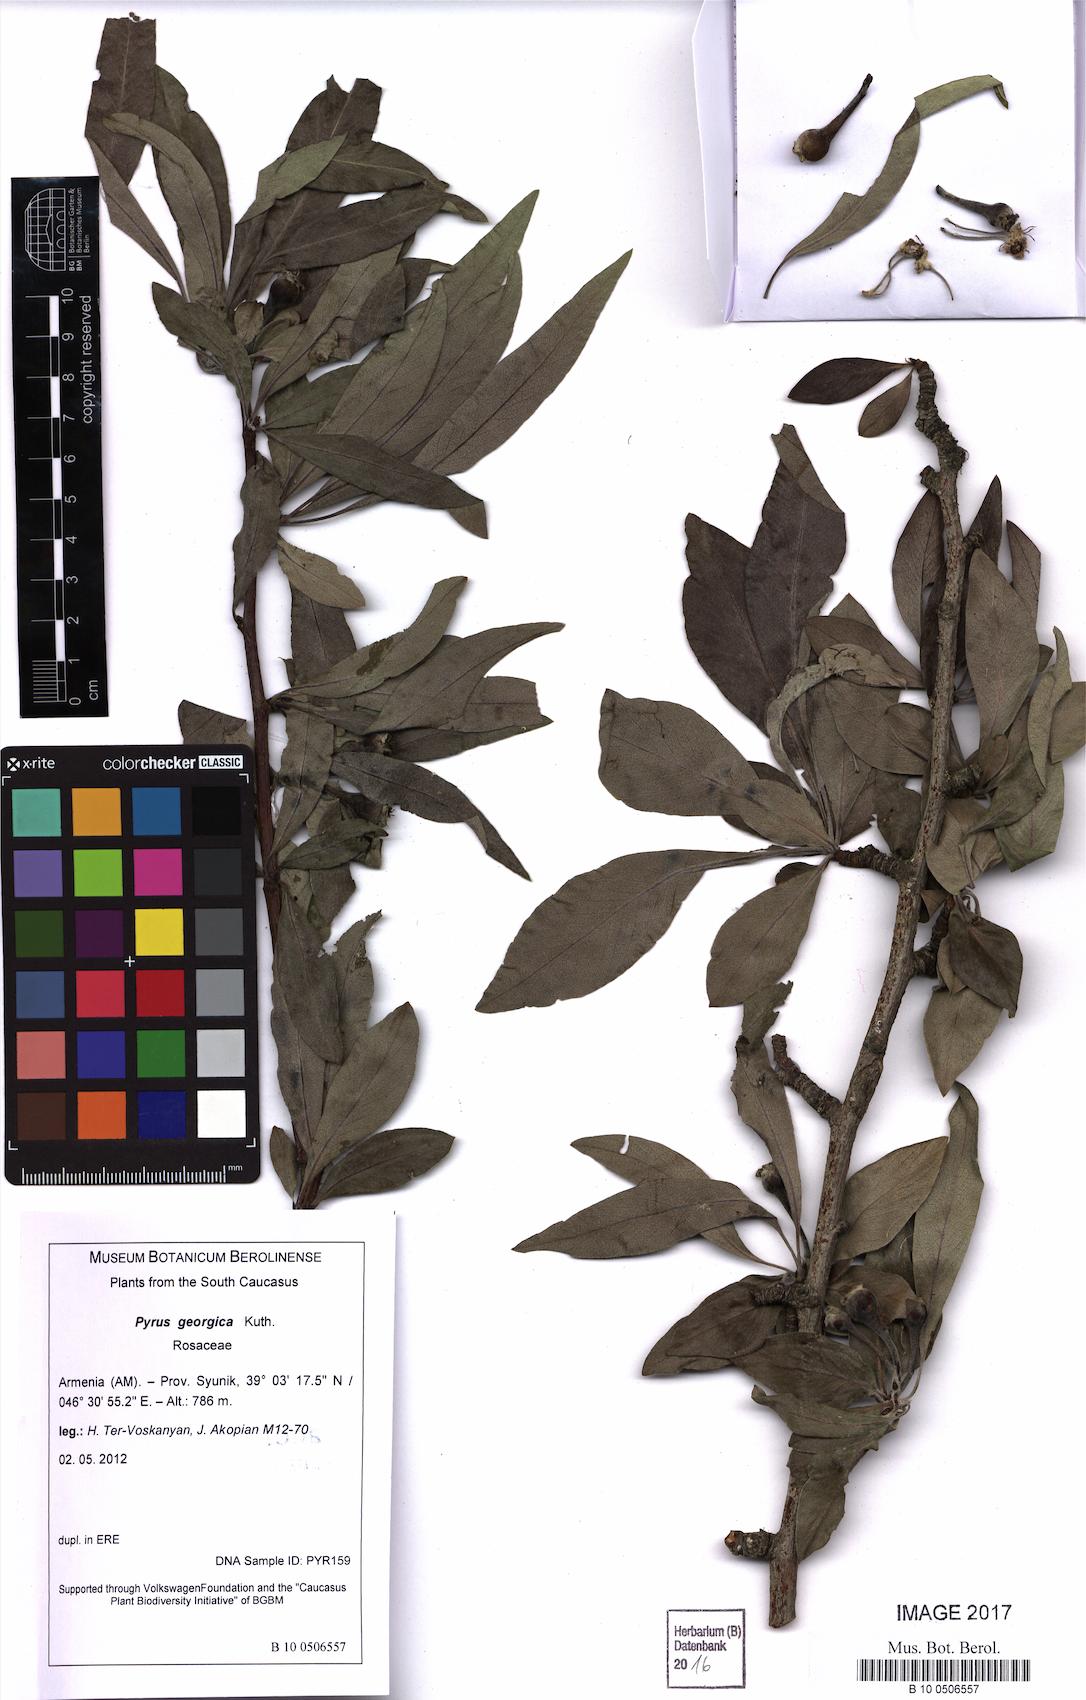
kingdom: Plantae
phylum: Tracheophyta
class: Magnoliopsida
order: Rosales
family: Rosaceae
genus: Pyrus
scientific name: Pyrus georgica
